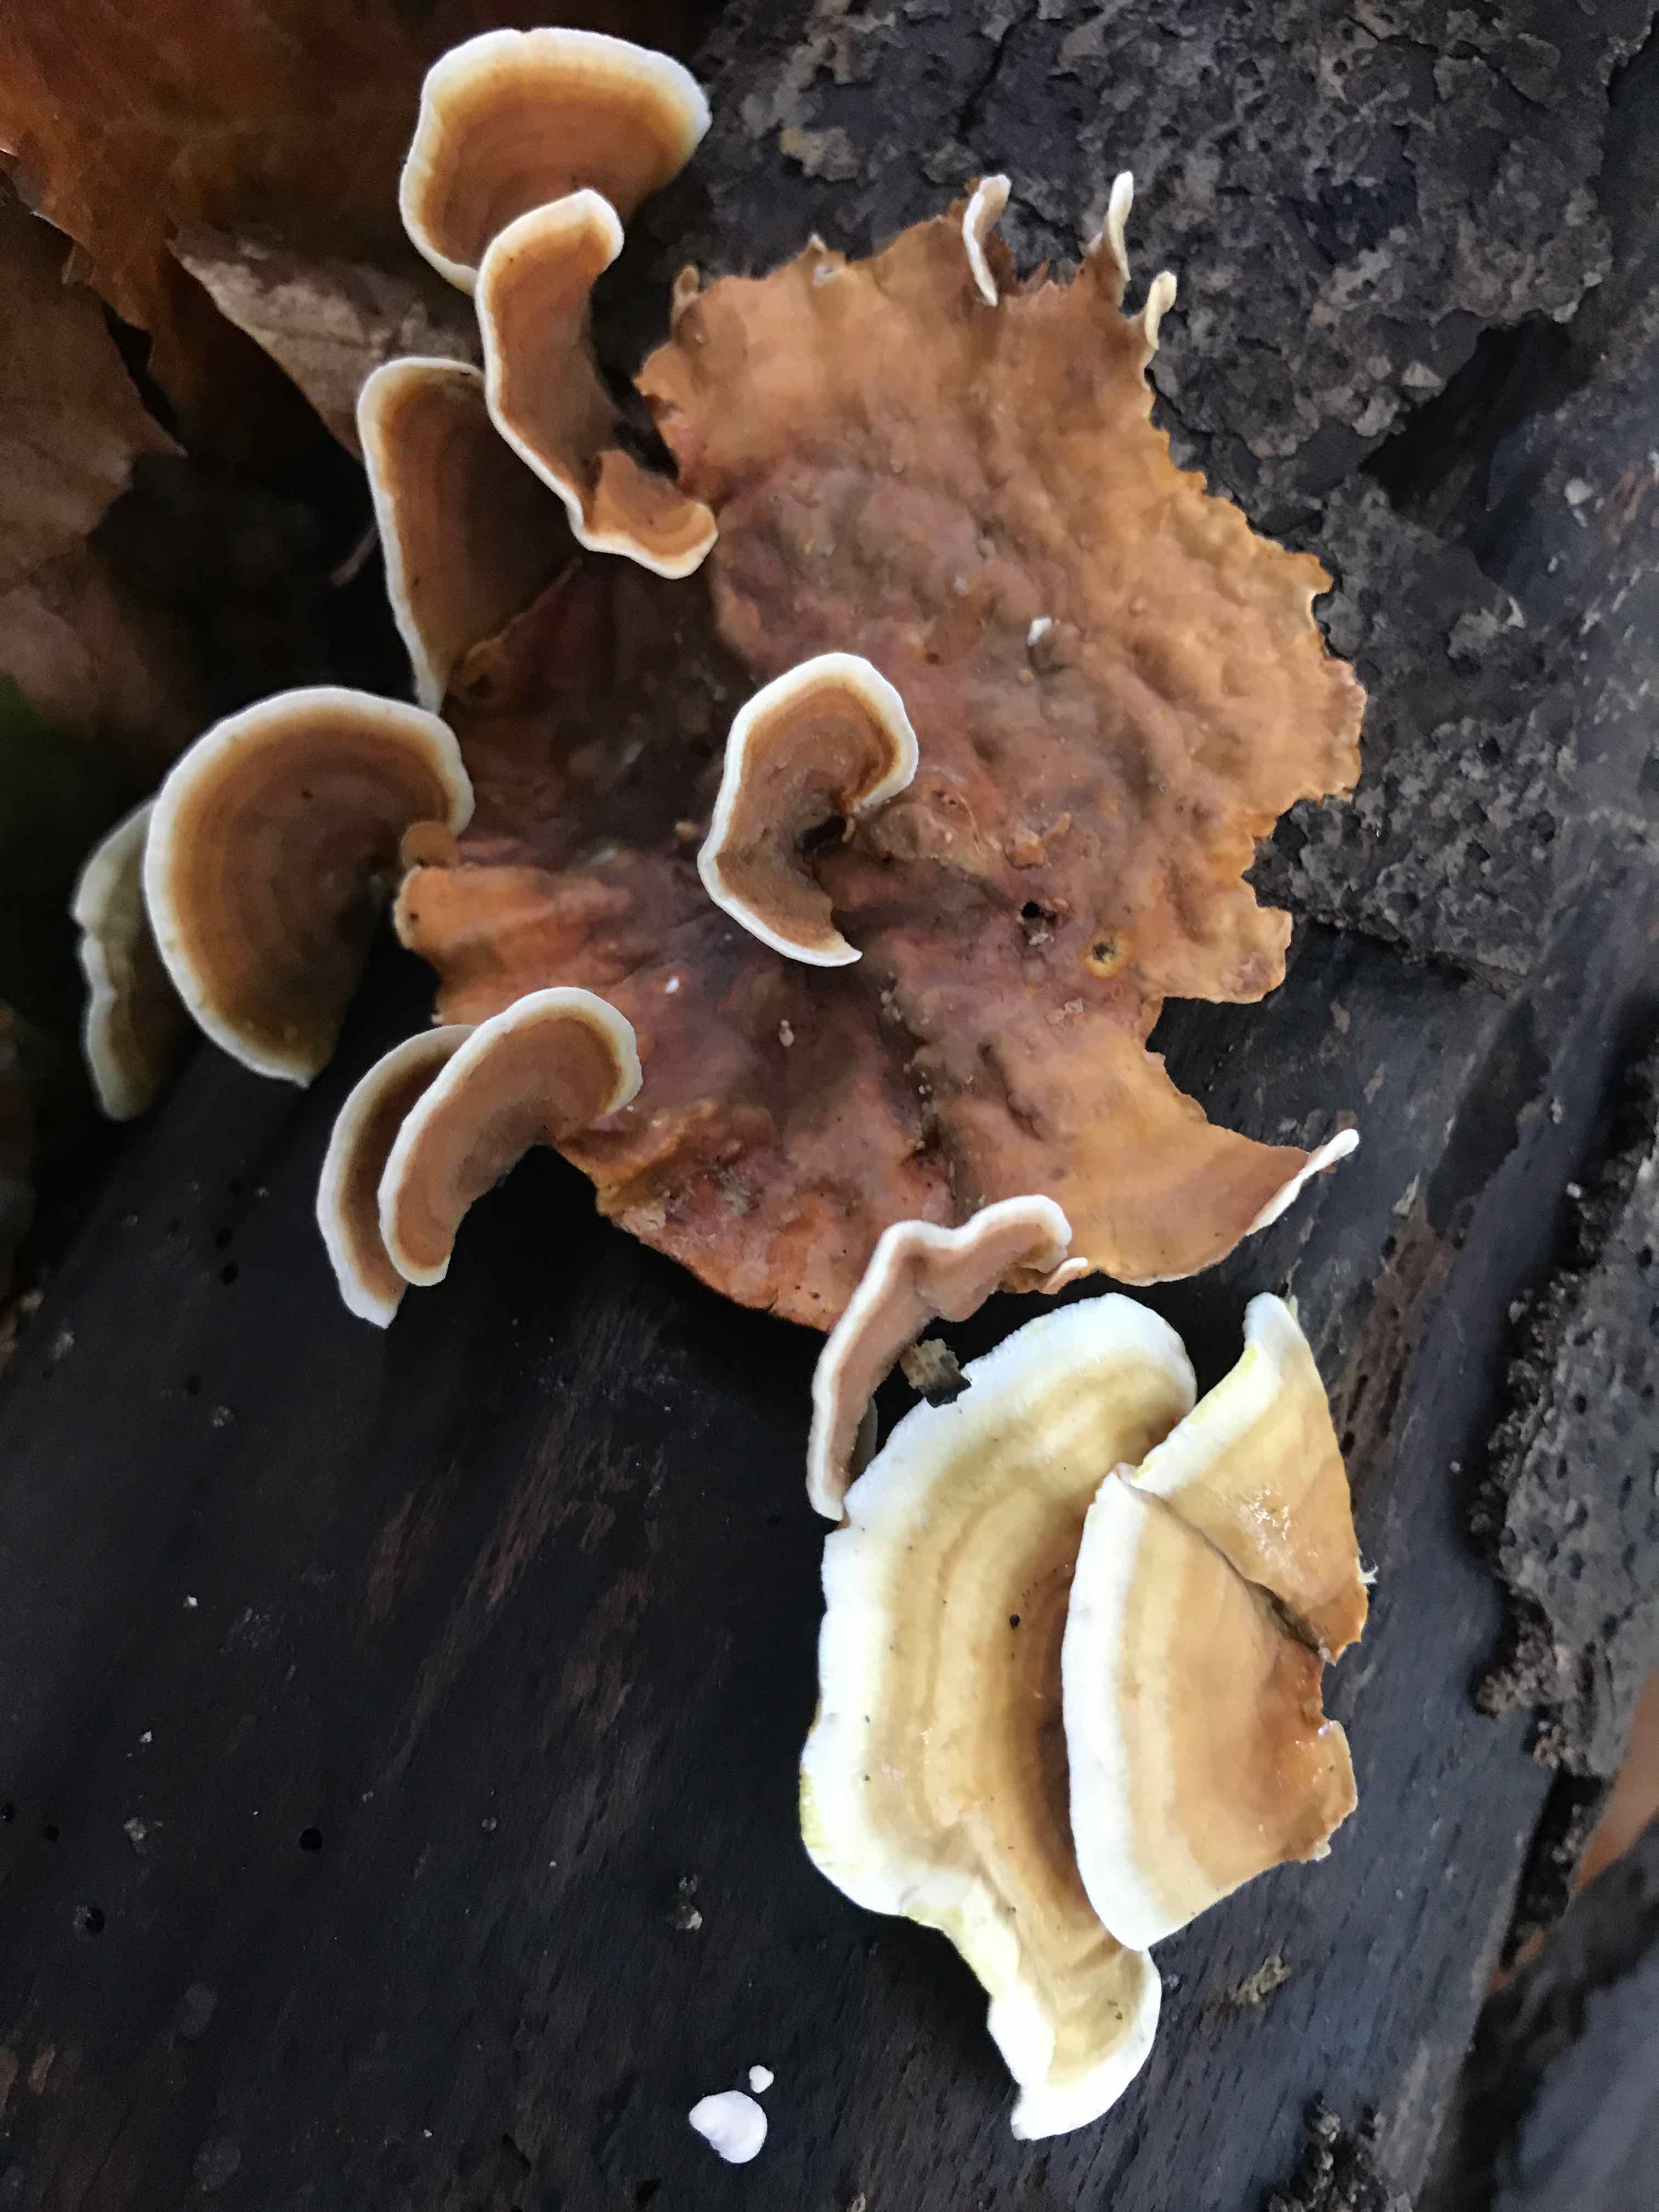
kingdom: Fungi
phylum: Basidiomycota
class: Agaricomycetes
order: Russulales
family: Stereaceae
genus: Stereum
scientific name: Stereum subtomentosum
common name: smuk lædersvamp
